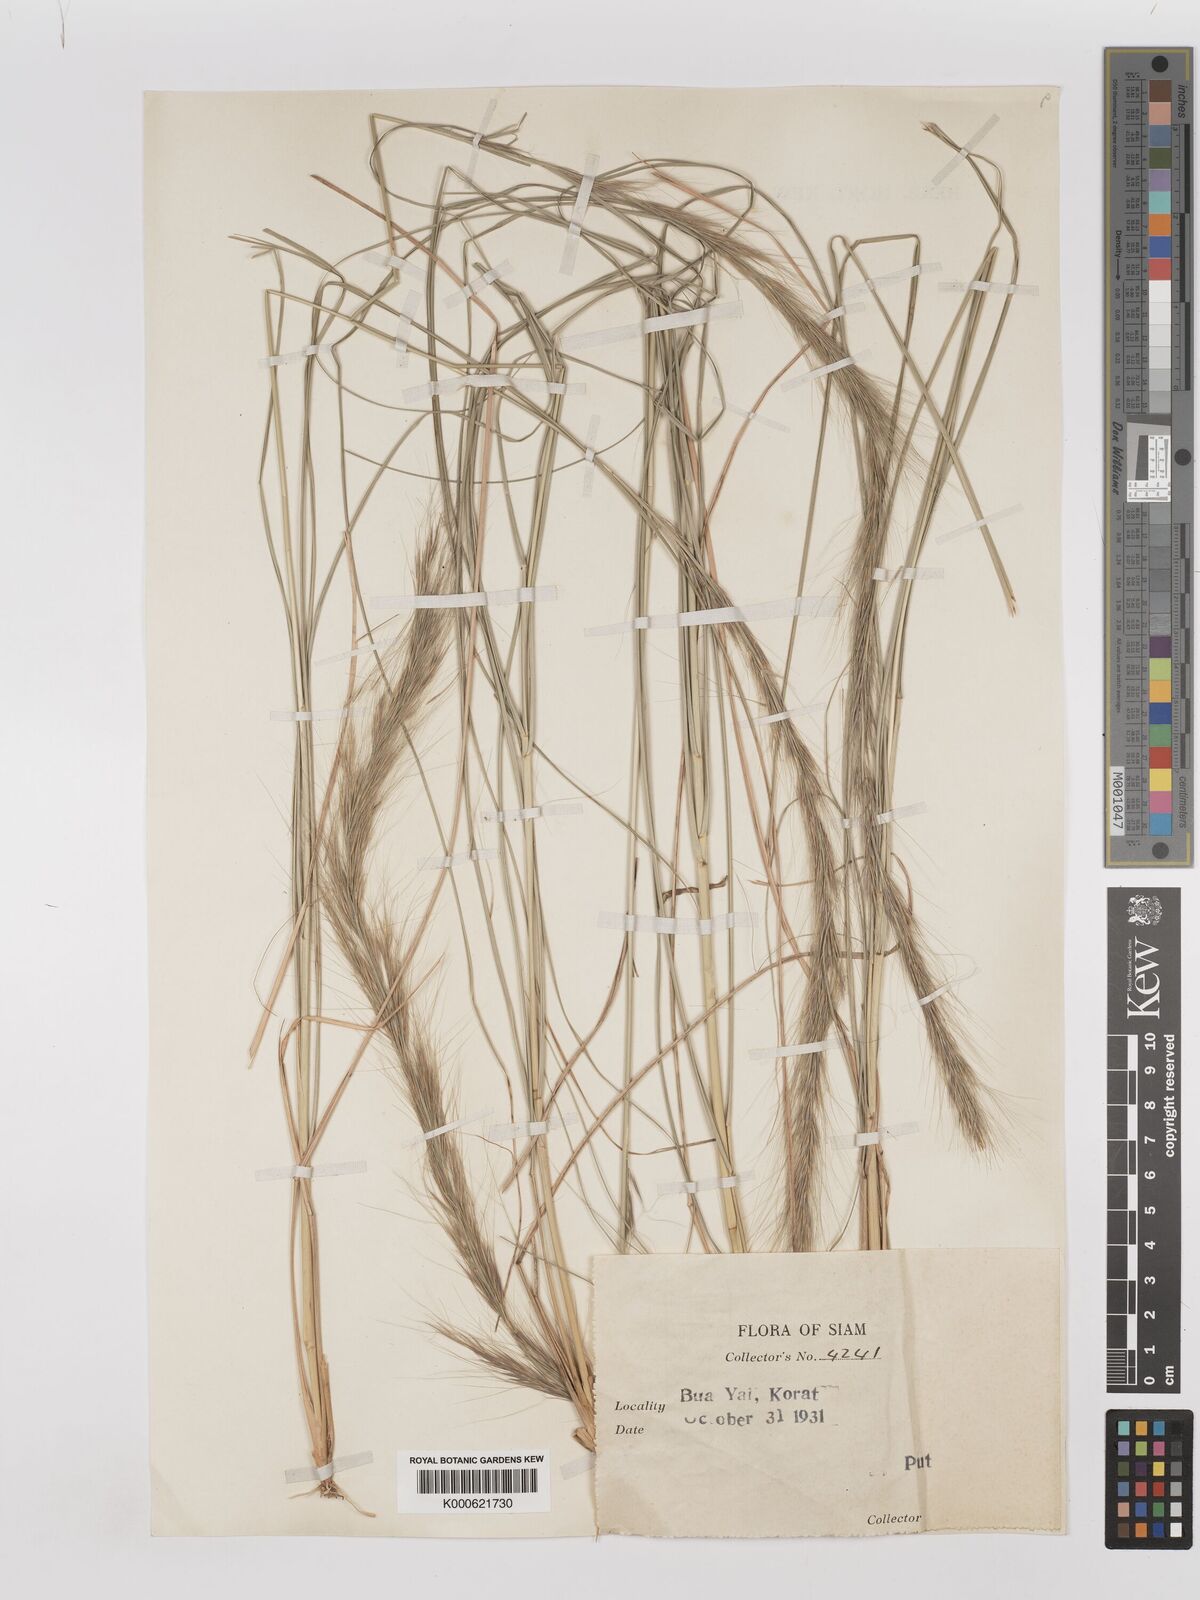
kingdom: Plantae
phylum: Tracheophyta
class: Liliopsida
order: Poales
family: Poaceae
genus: Aristida
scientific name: Aristida balansae
